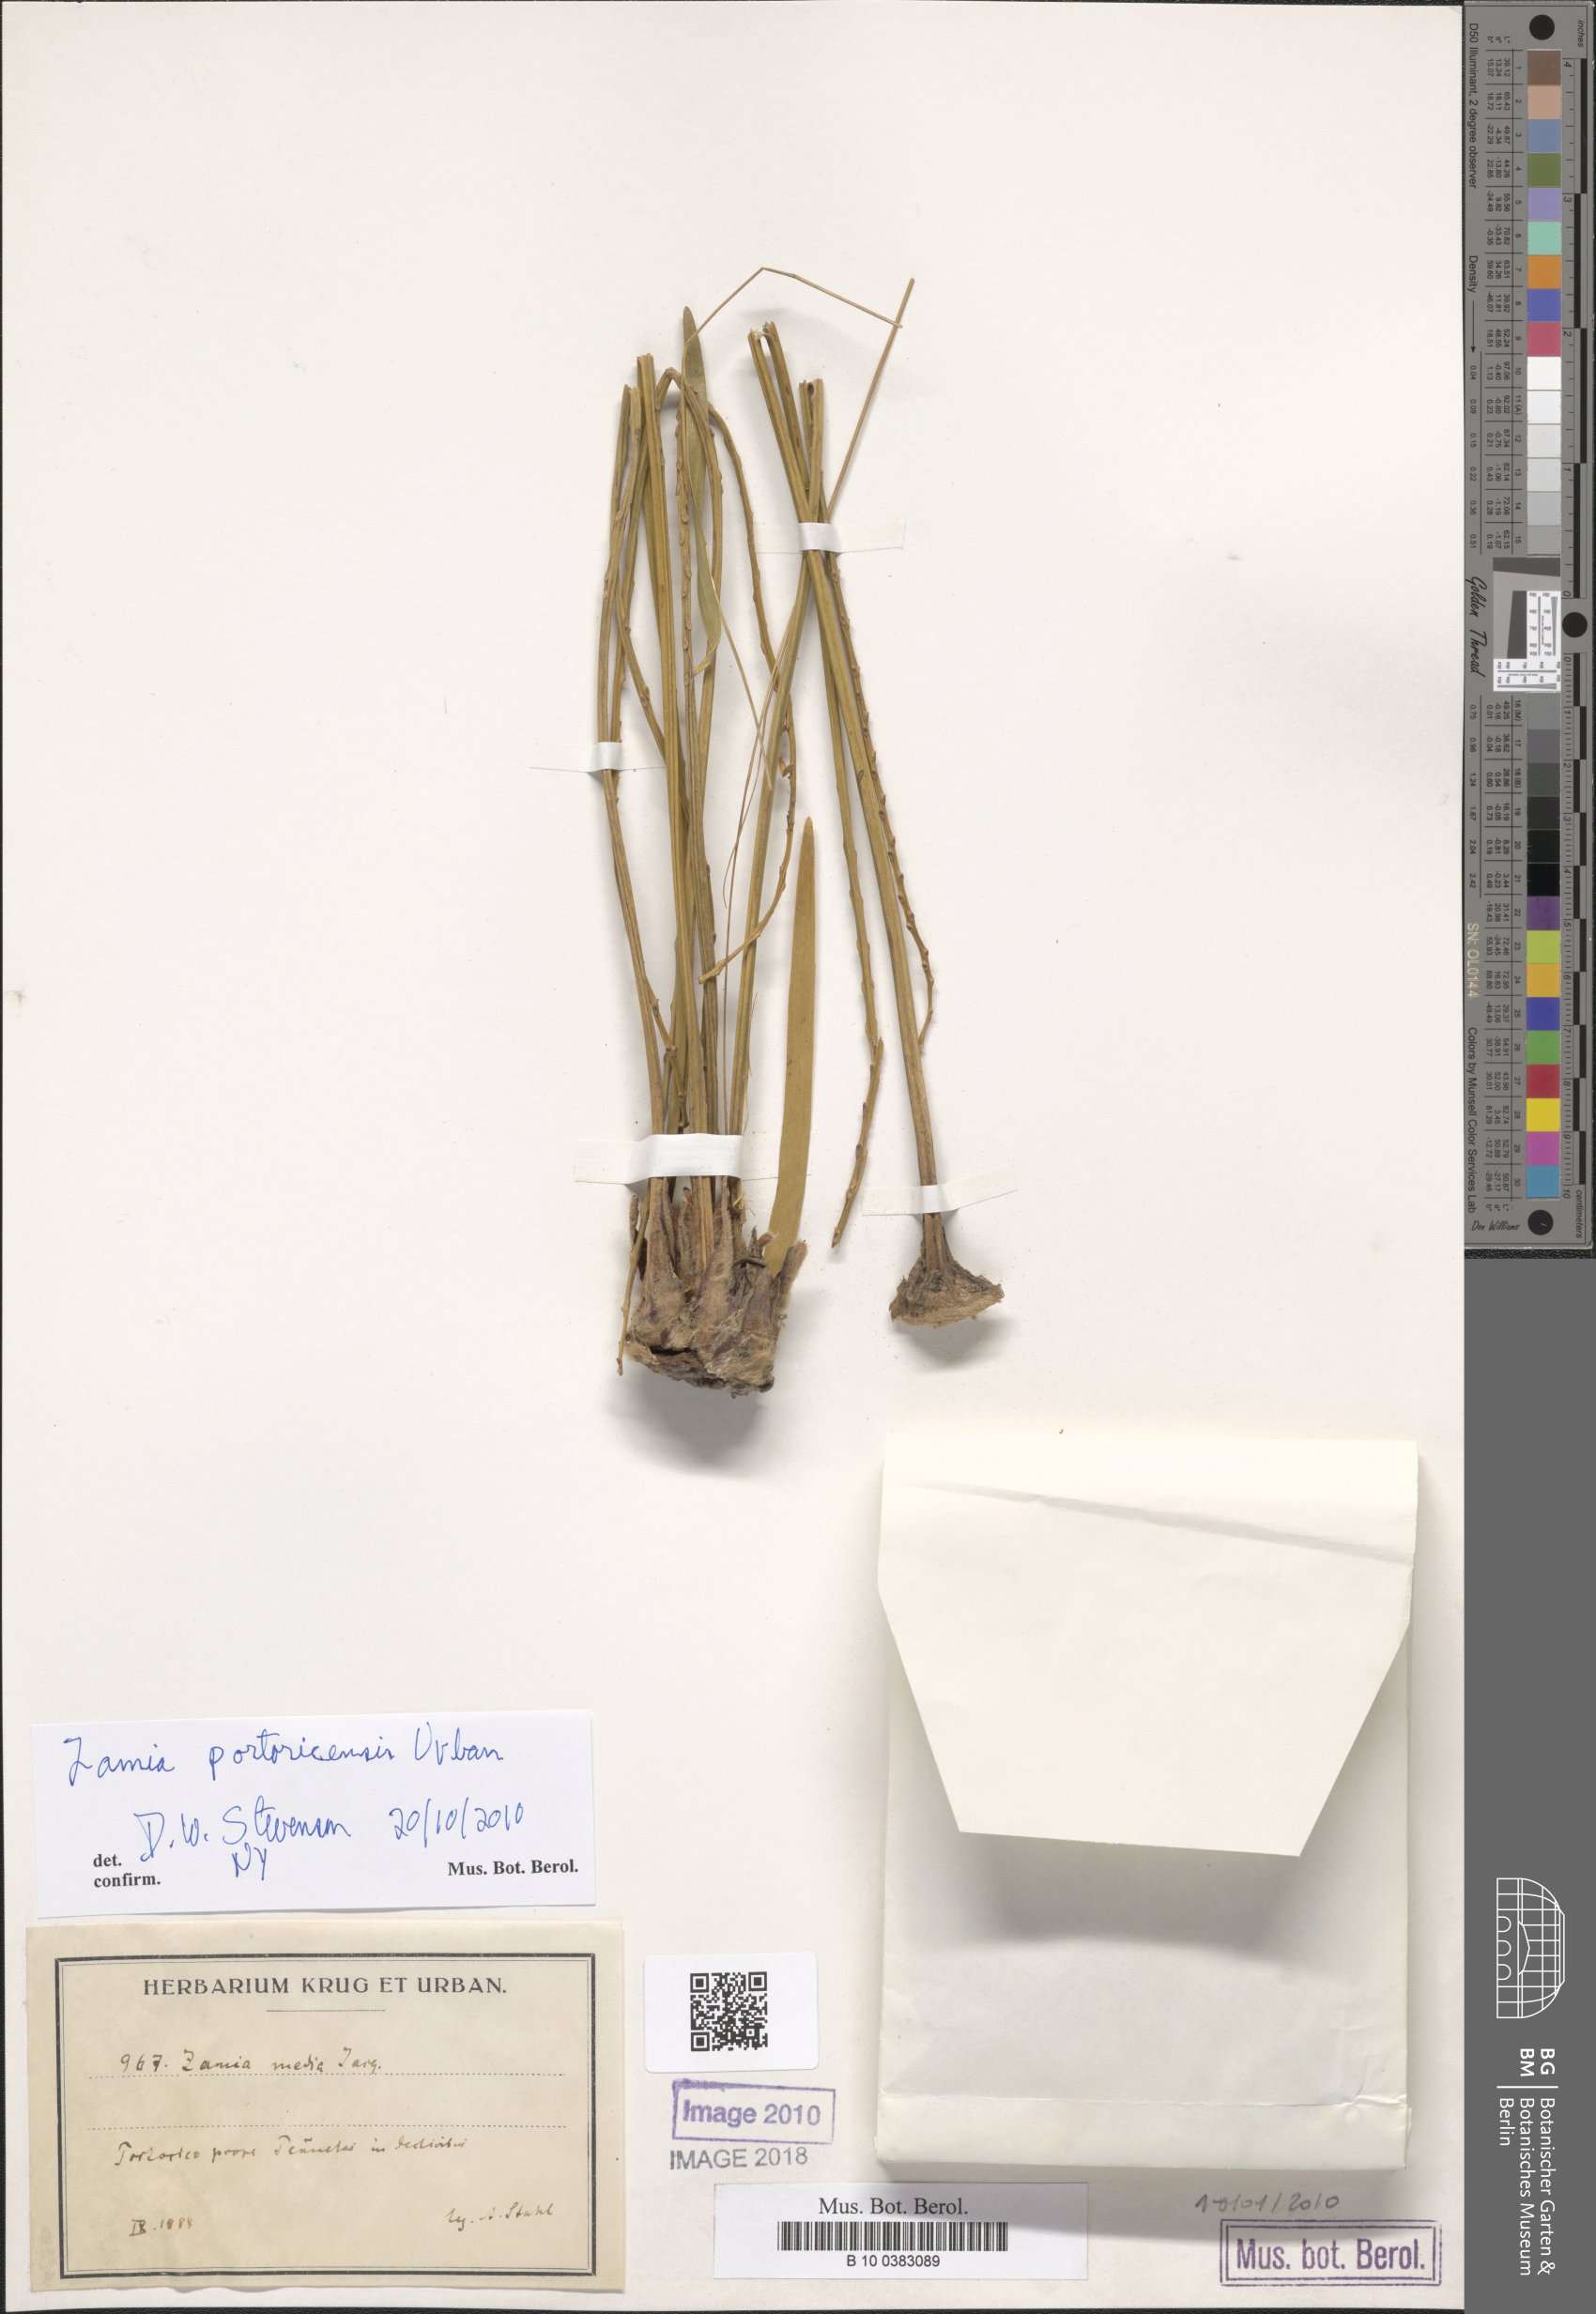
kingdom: Plantae
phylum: Tracheophyta
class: Cycadopsida
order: Cycadales
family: Zamiaceae
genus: Zamia
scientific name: Zamia integrifolia
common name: Florida arrowroot
